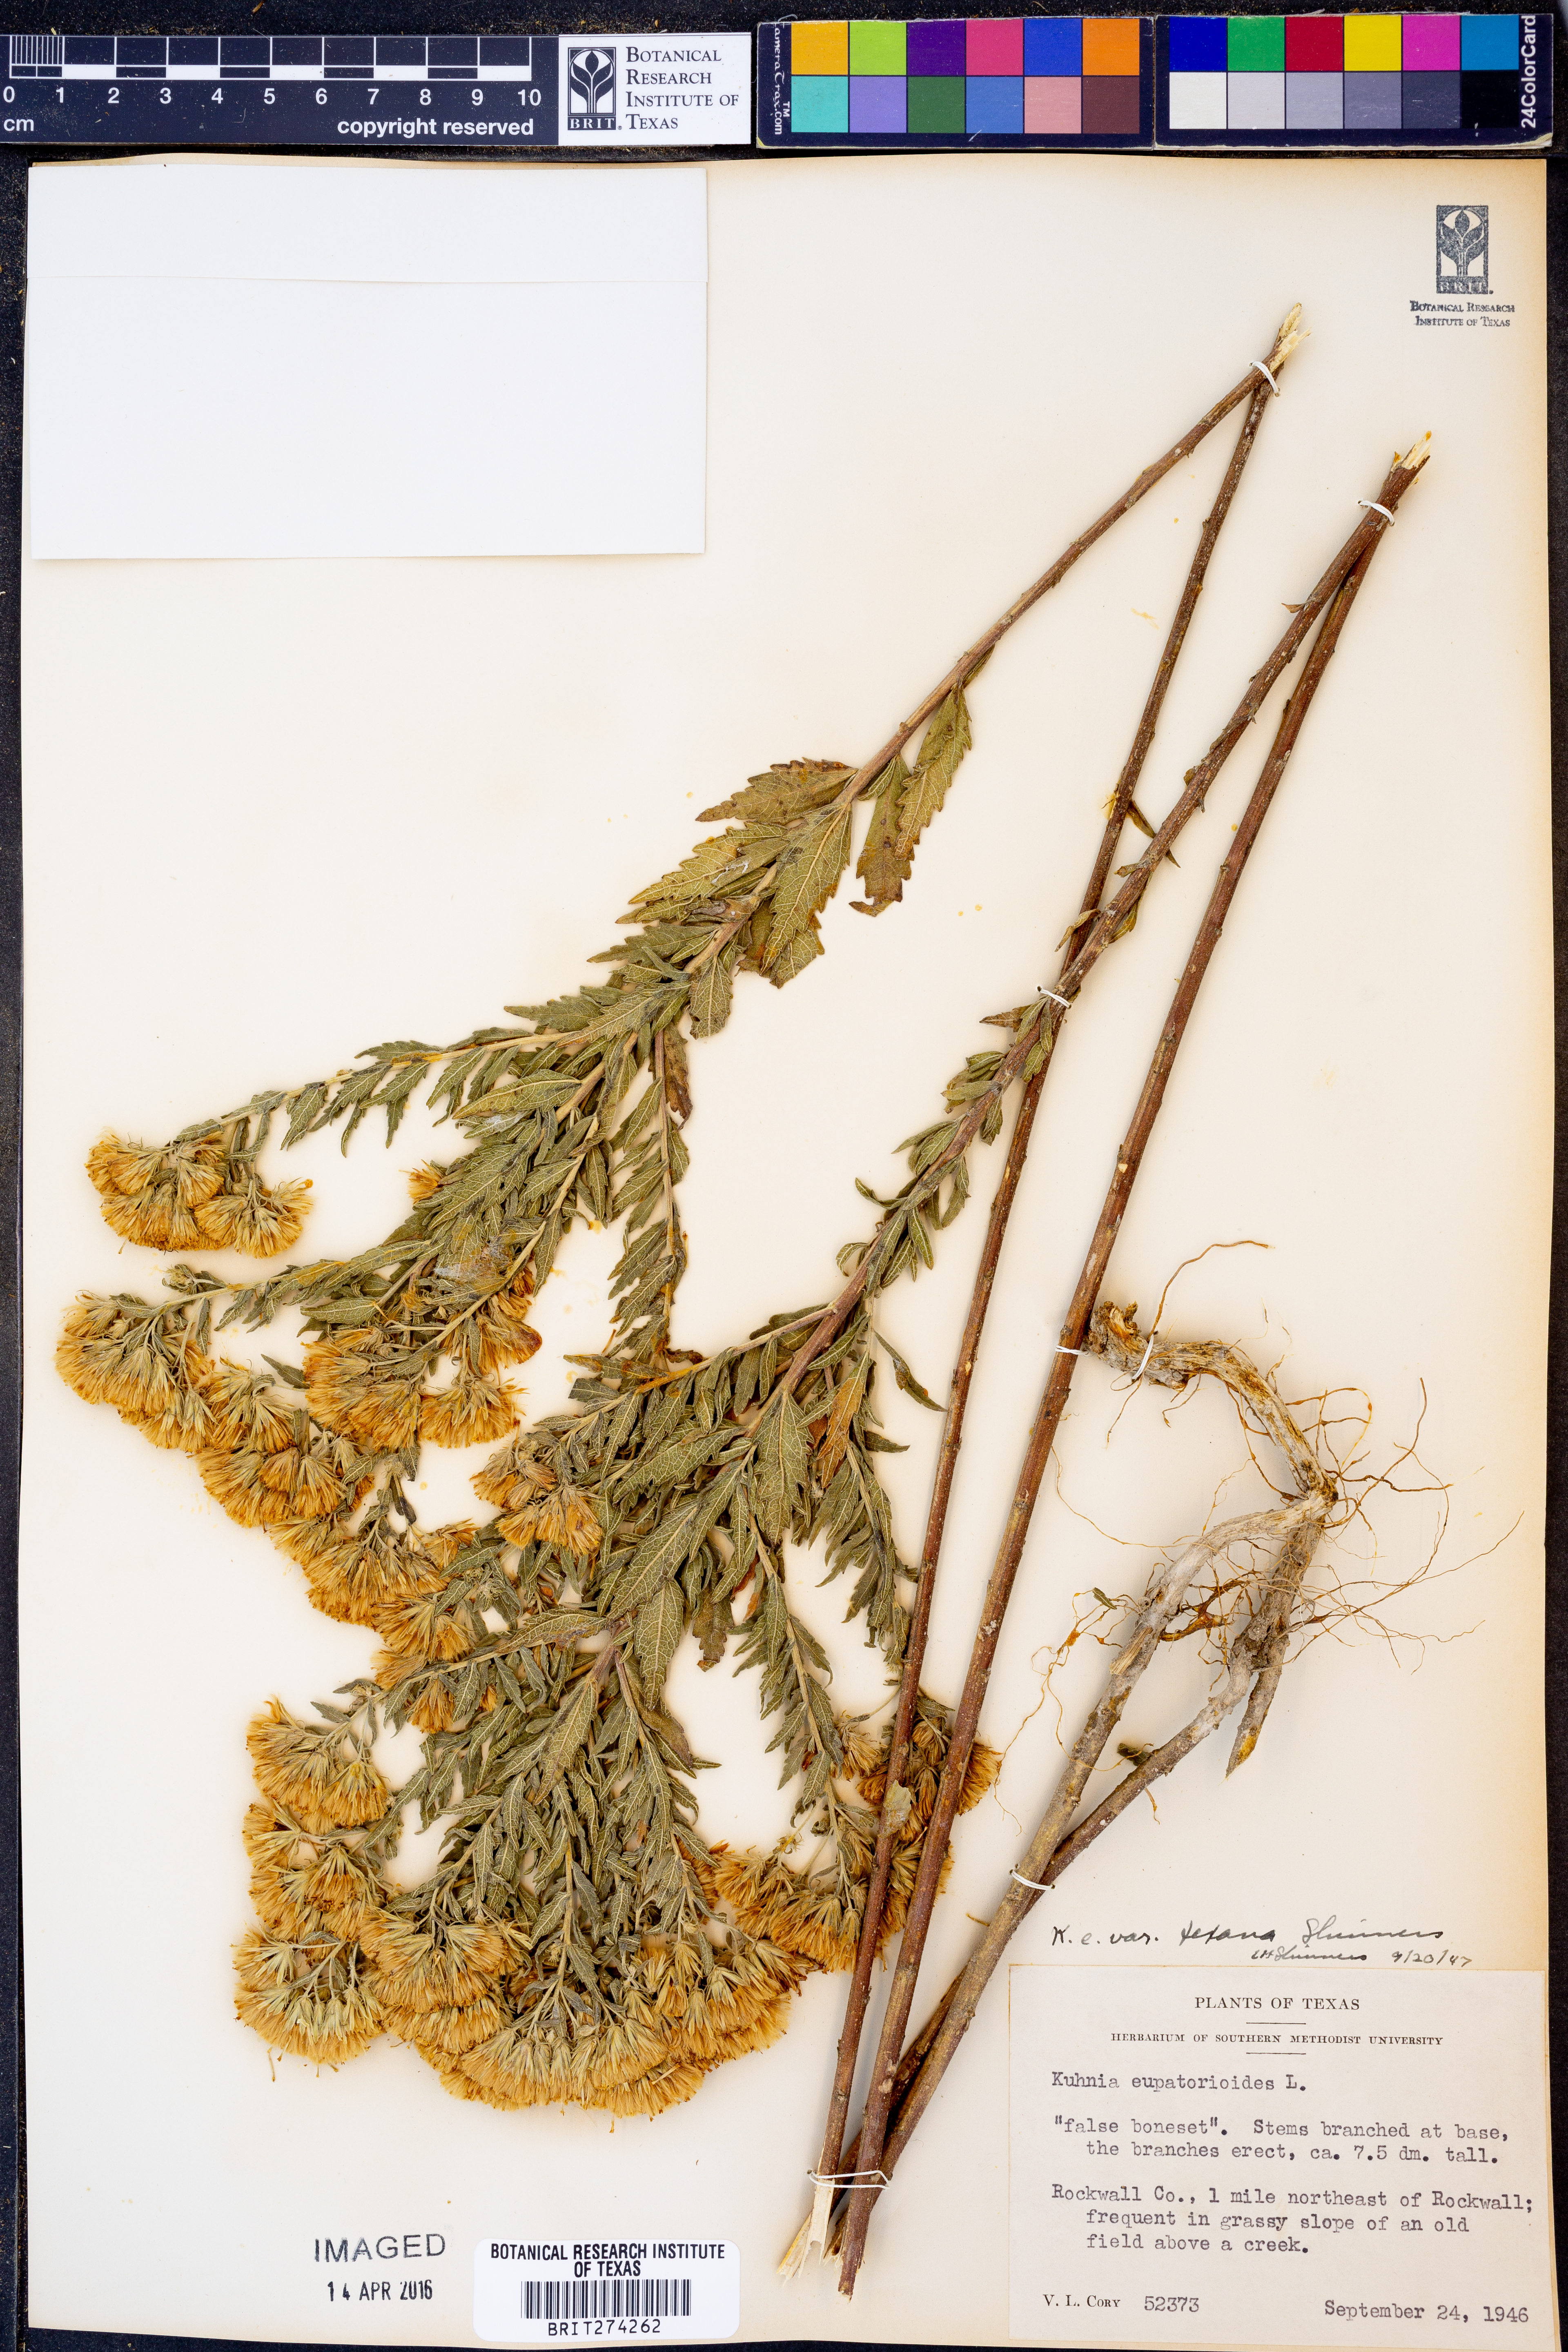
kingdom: Plantae
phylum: Tracheophyta
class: Magnoliopsida
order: Asterales
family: Asteraceae
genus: Brickellia
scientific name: Brickellia
